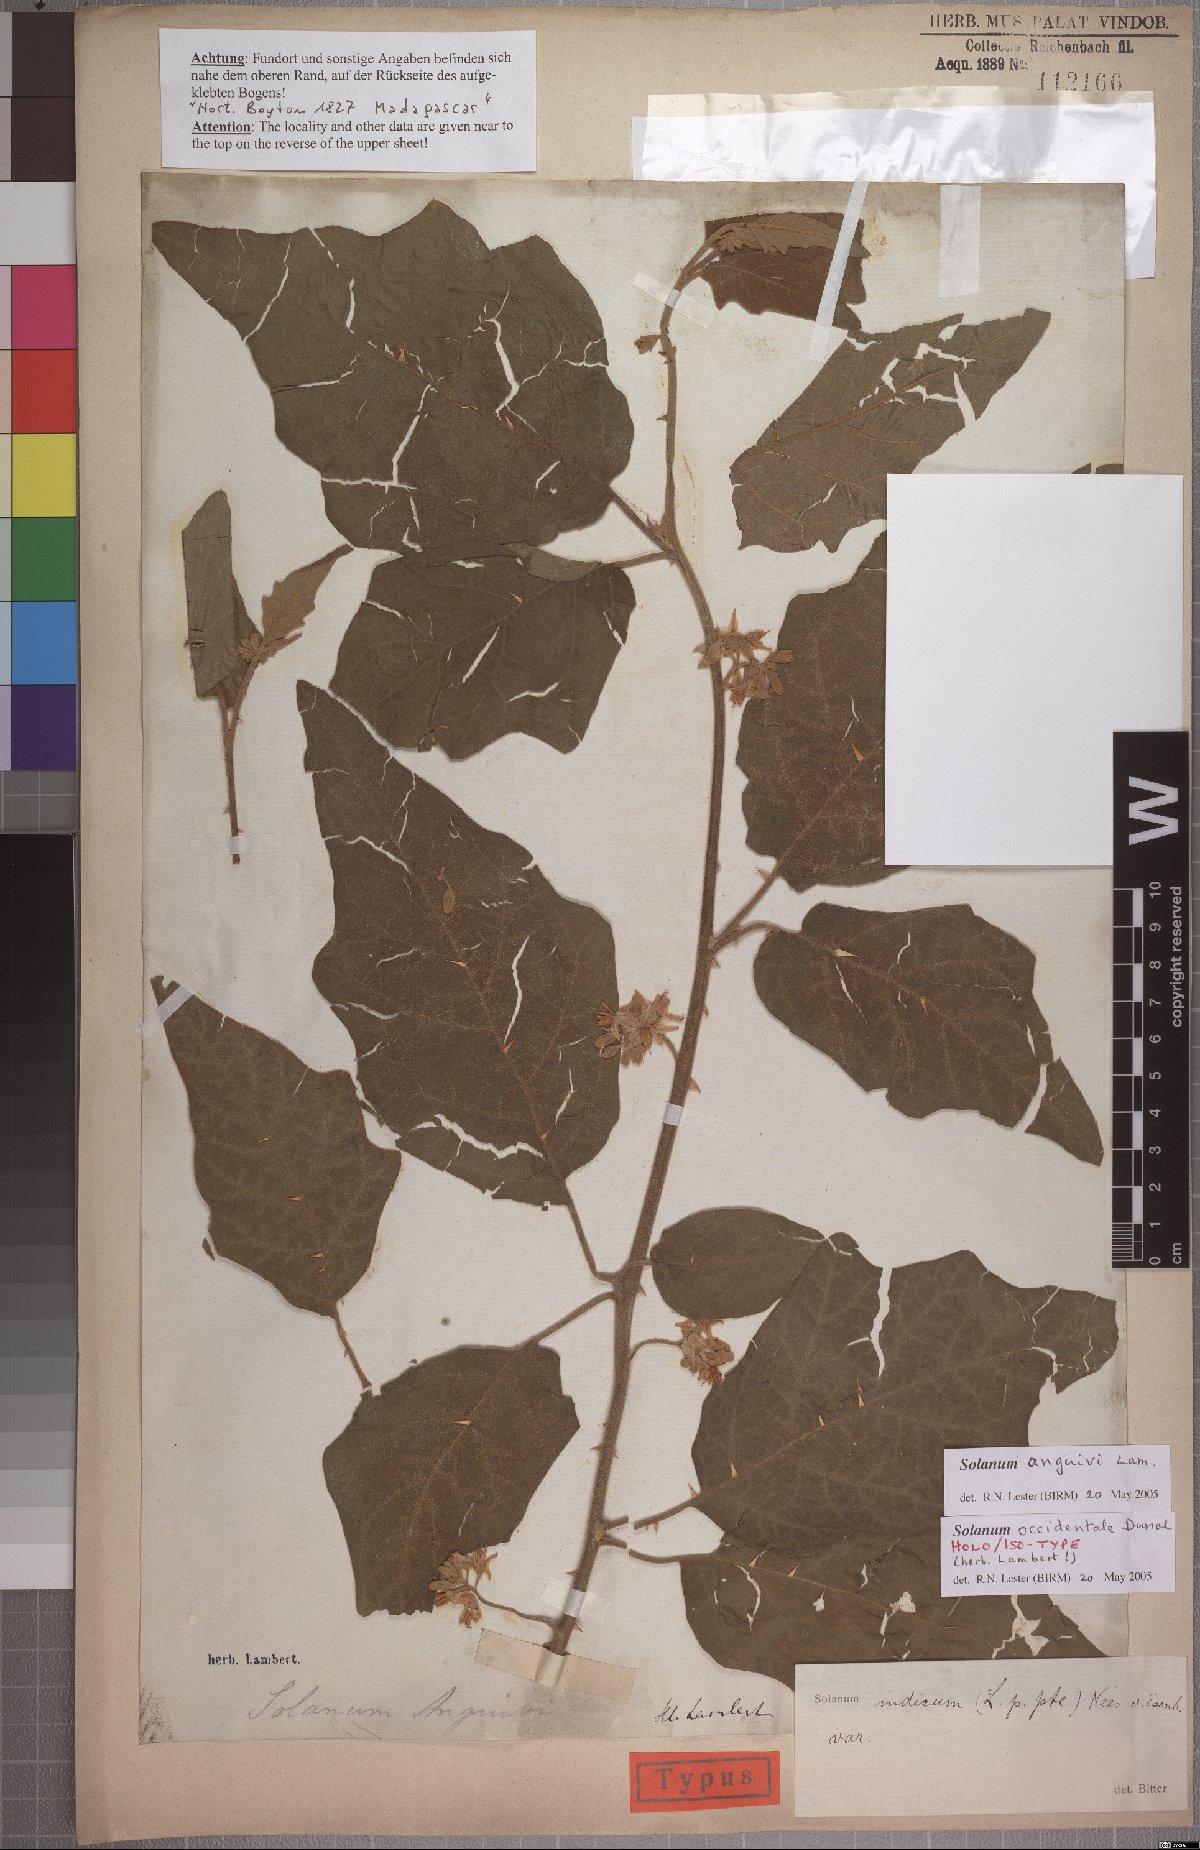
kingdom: Plantae
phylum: Tracheophyta
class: Magnoliopsida
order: Solanales
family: Solanaceae
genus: Solanum
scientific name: Solanum anguivi
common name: Forest bitterberry
